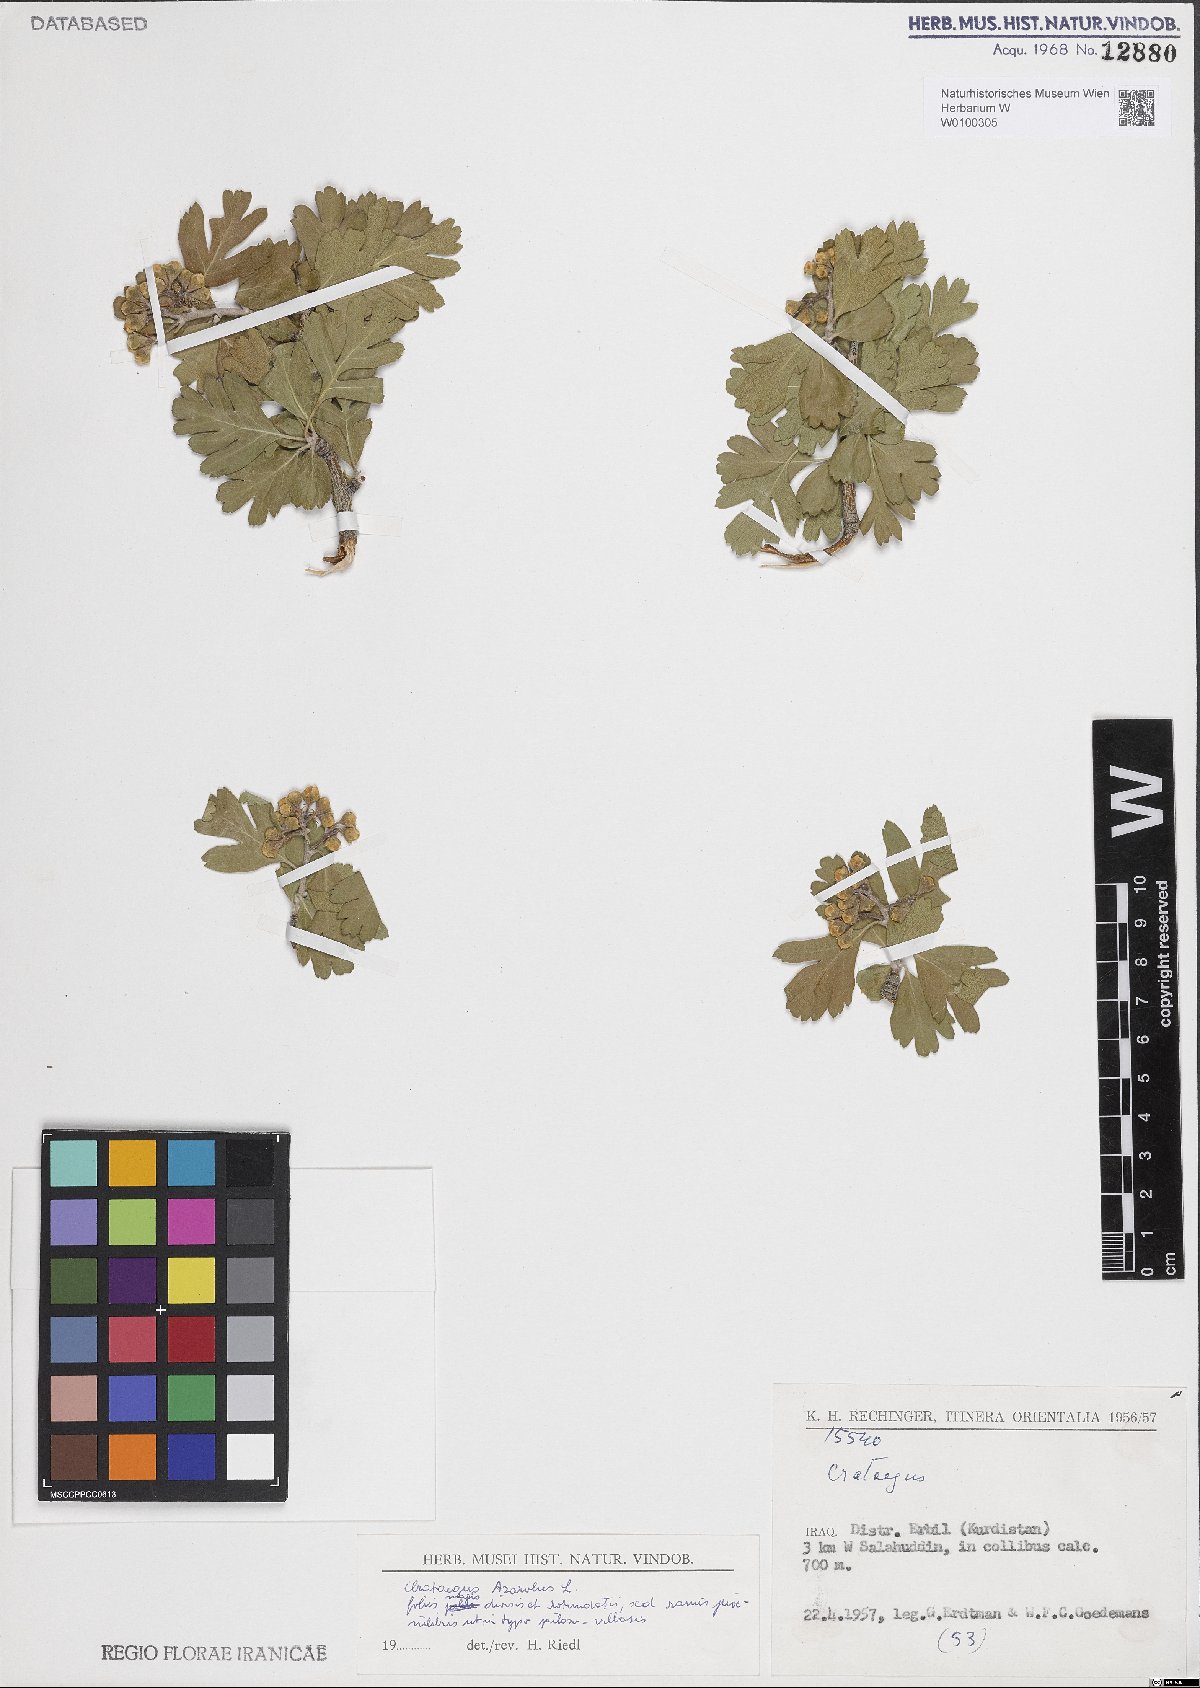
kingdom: Plantae
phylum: Tracheophyta
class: Magnoliopsida
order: Rosales
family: Rosaceae
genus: Crataegus
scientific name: Crataegus azarolus
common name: Azarole
